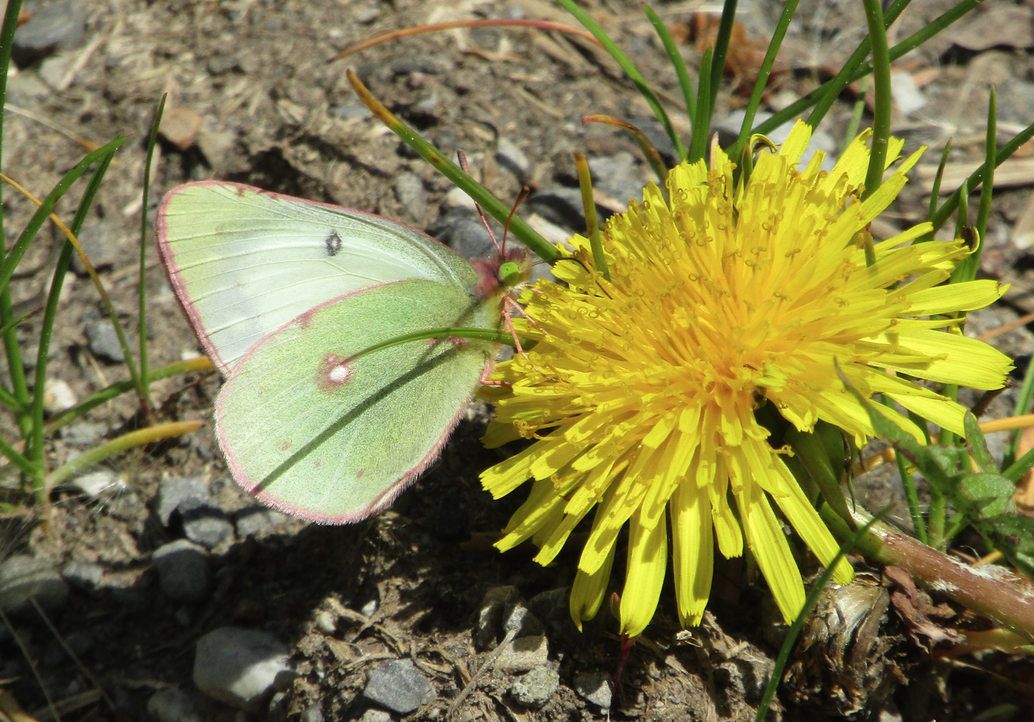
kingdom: Animalia
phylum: Arthropoda
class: Insecta
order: Lepidoptera
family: Pieridae
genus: Colias
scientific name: Colias gigantea
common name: Giant Sulphur
